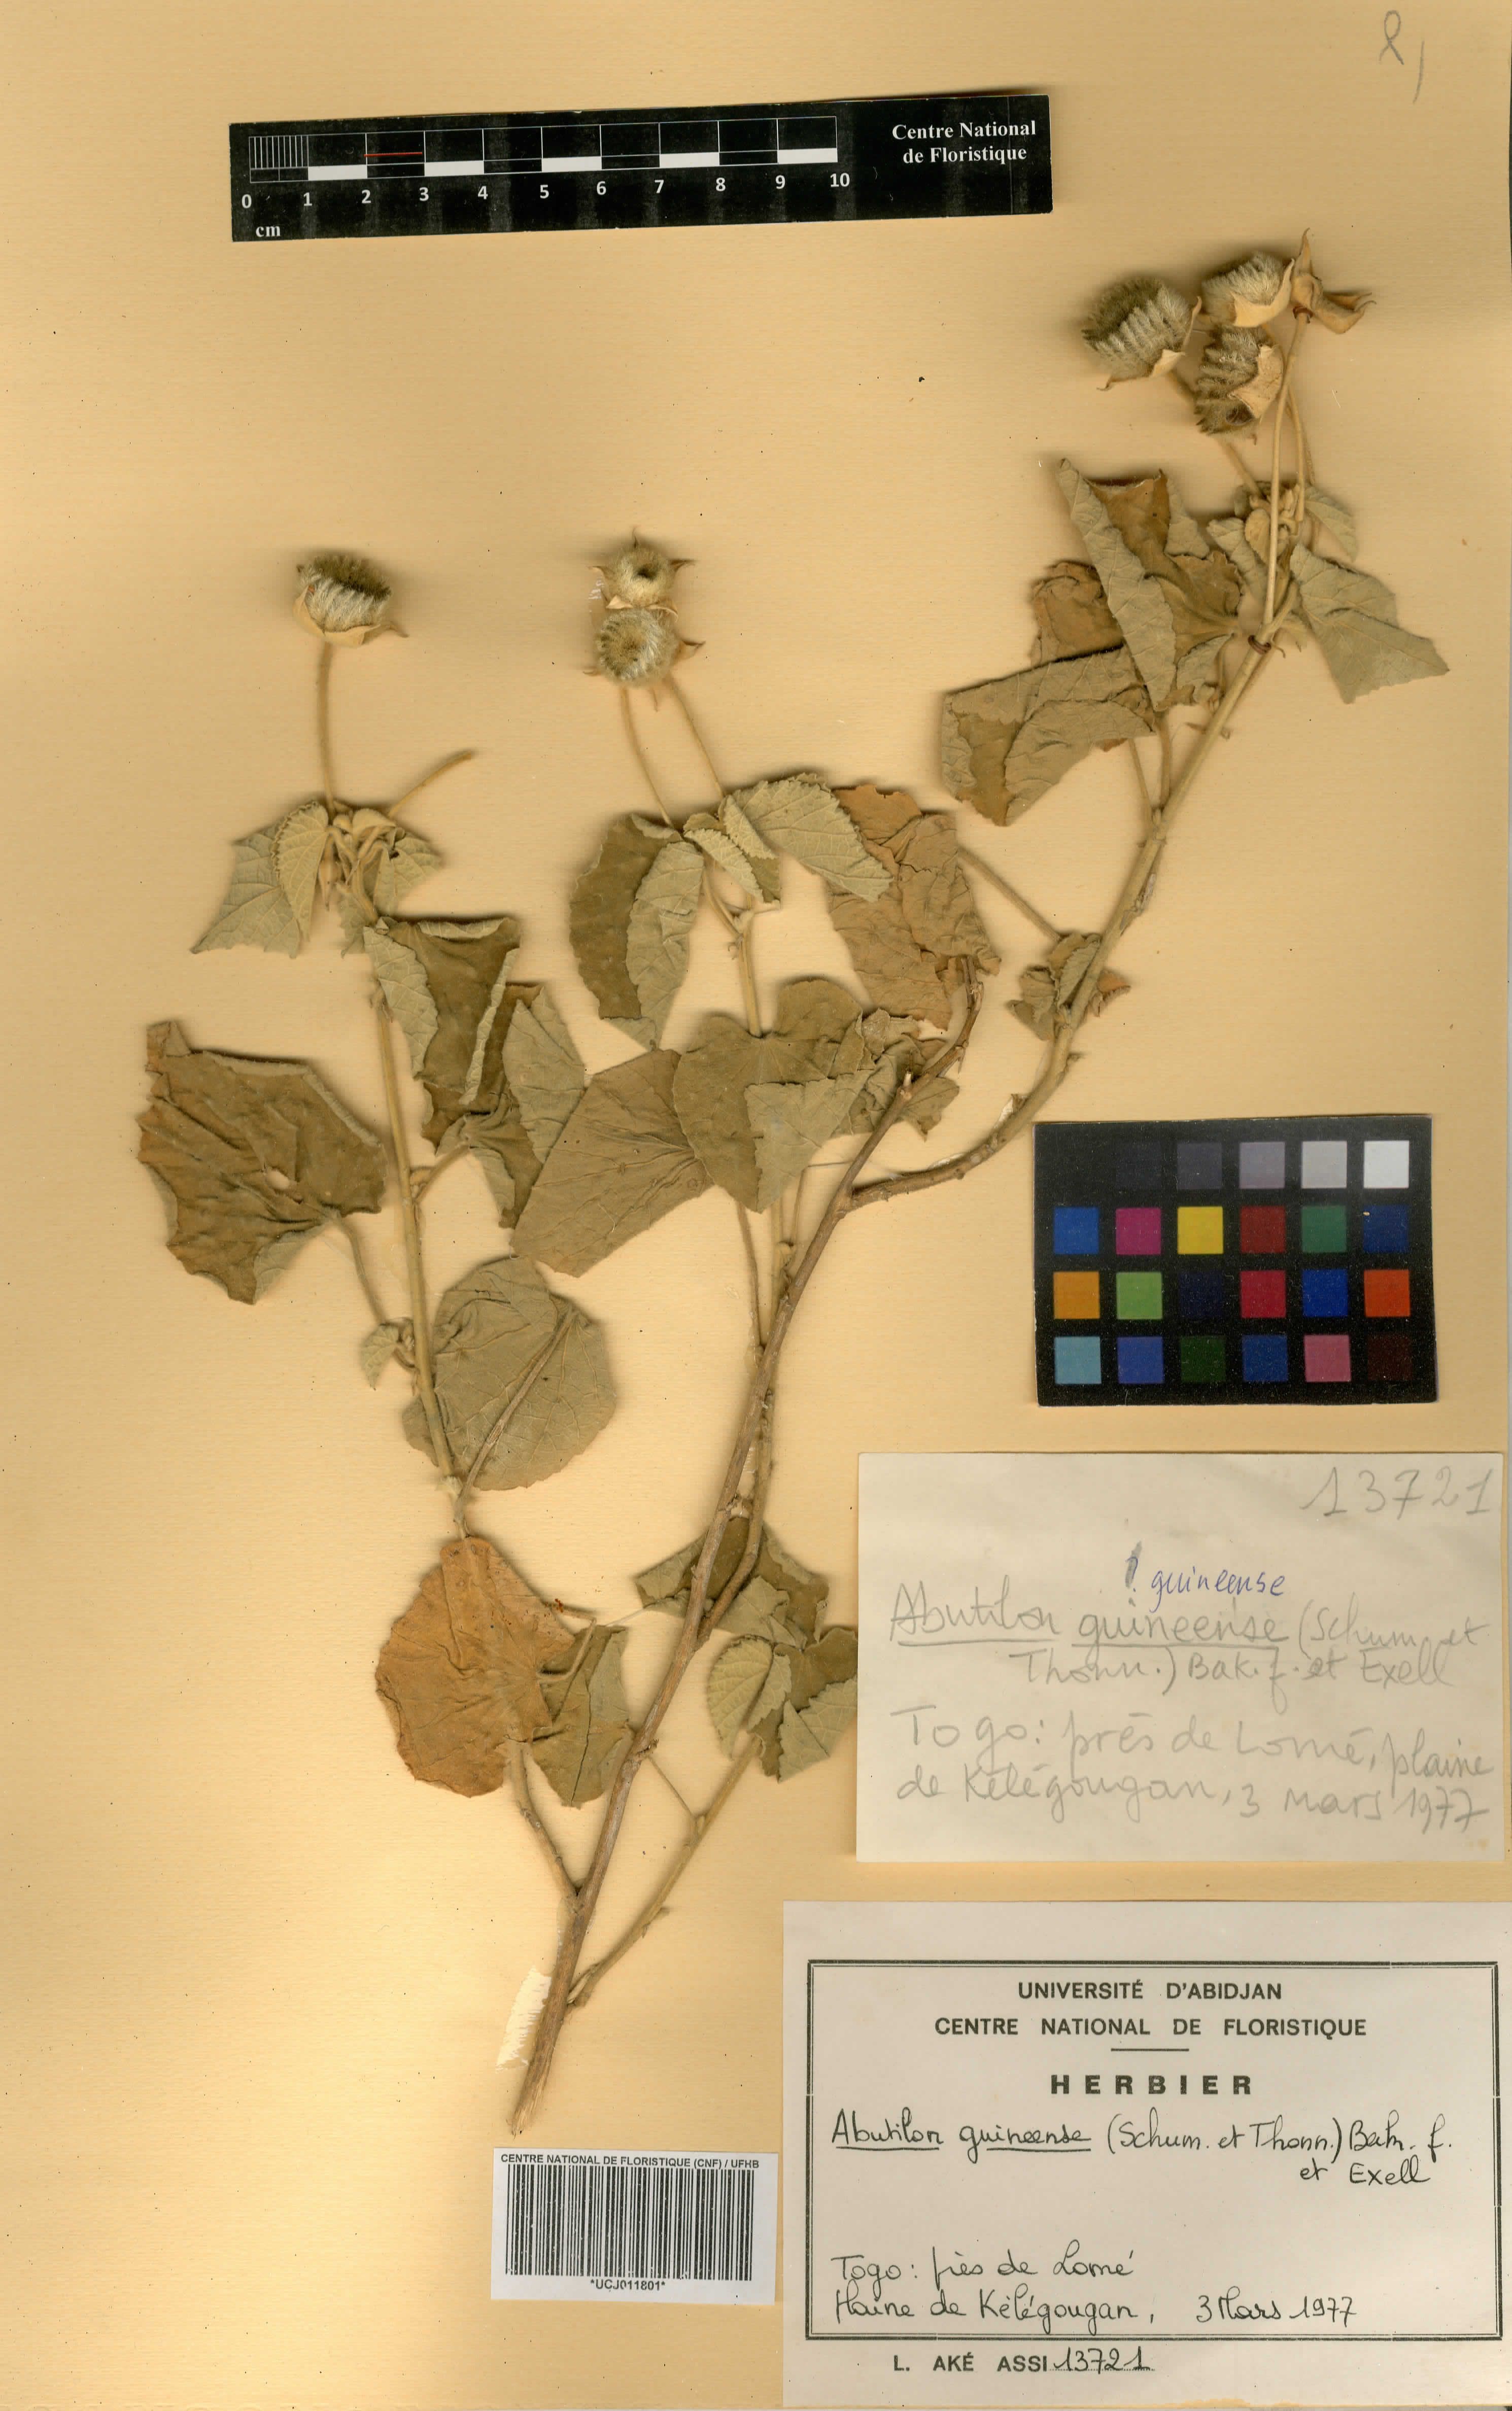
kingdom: Plantae
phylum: Tracheophyta
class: Magnoliopsida
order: Malvales
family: Malvaceae
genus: Abutilon
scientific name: Abutilon guineense
